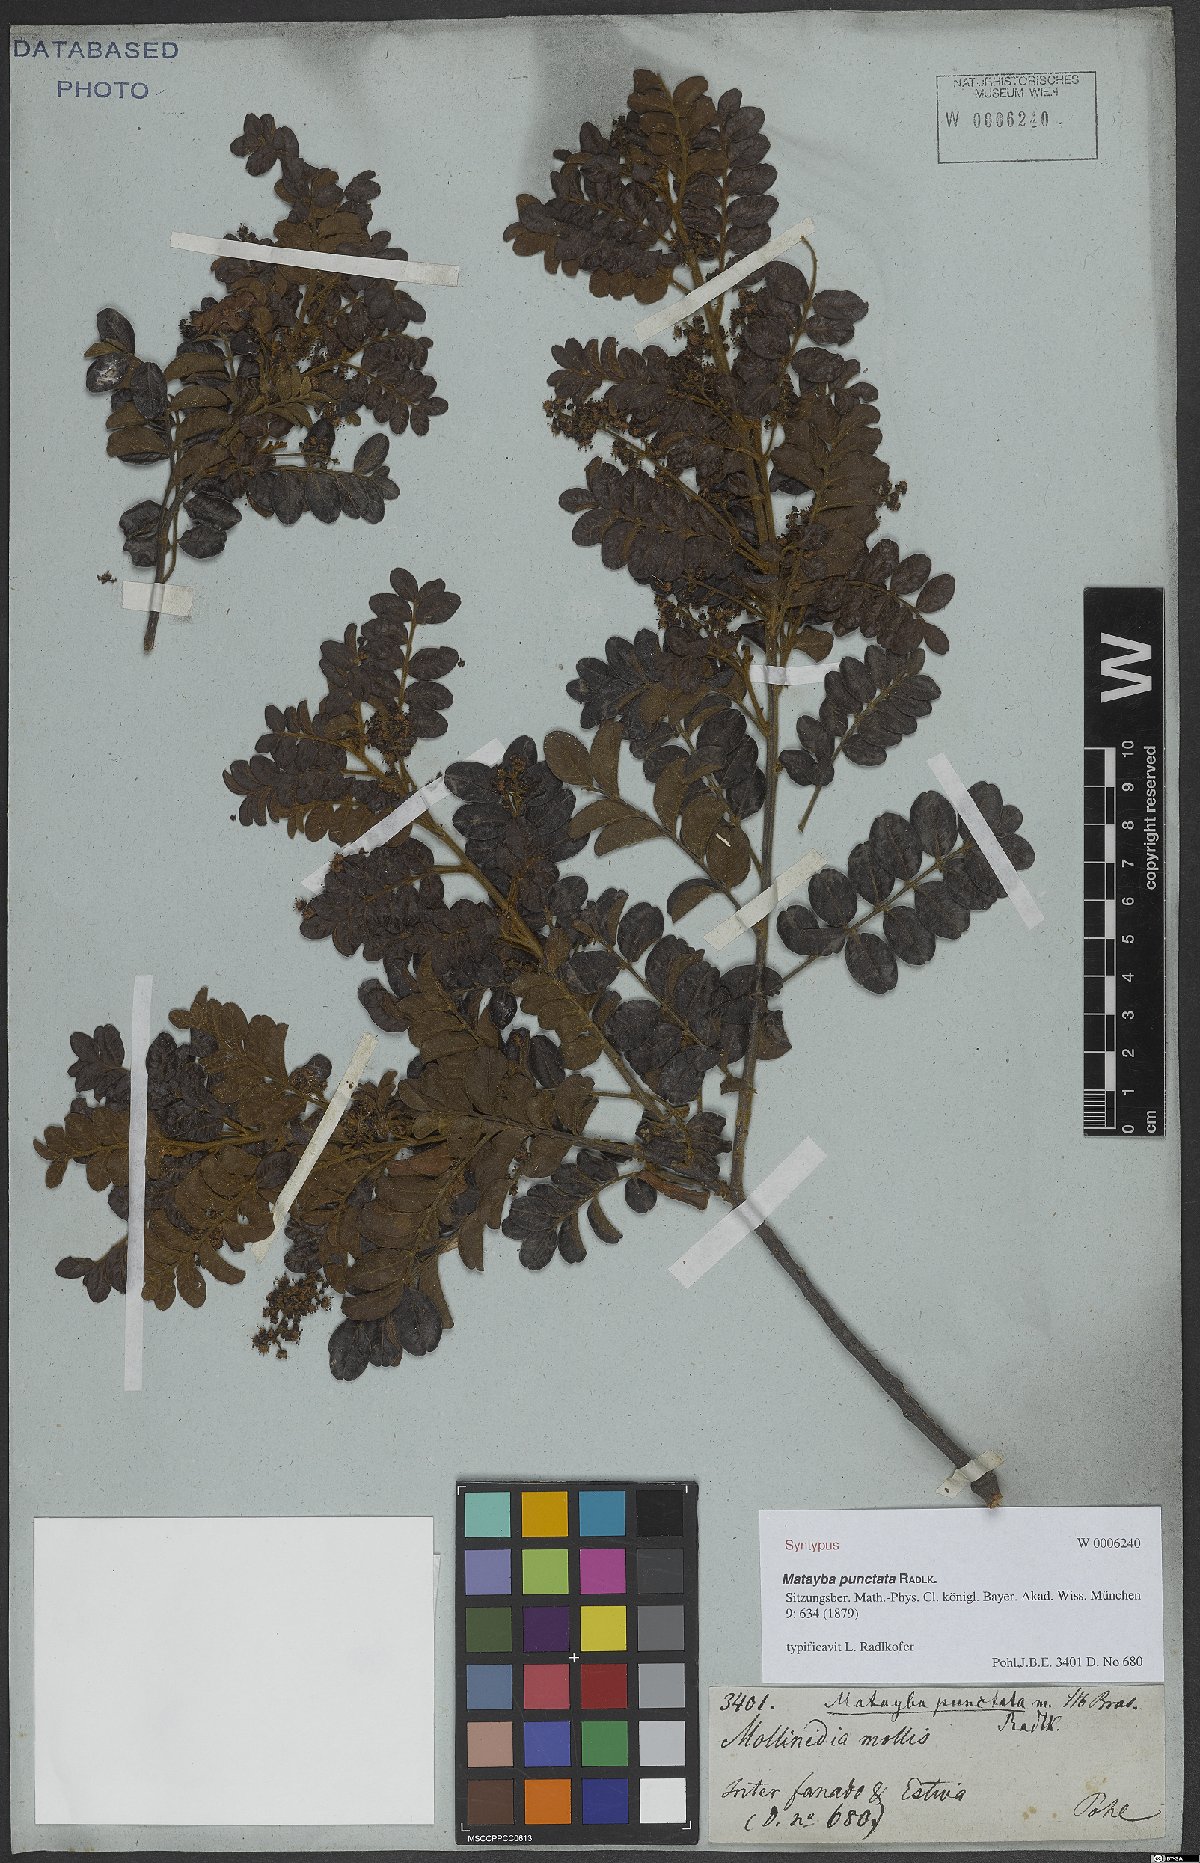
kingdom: Plantae
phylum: Tracheophyta
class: Magnoliopsida
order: Sapindales
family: Sapindaceae
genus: Matayba
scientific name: Matayba punctata
